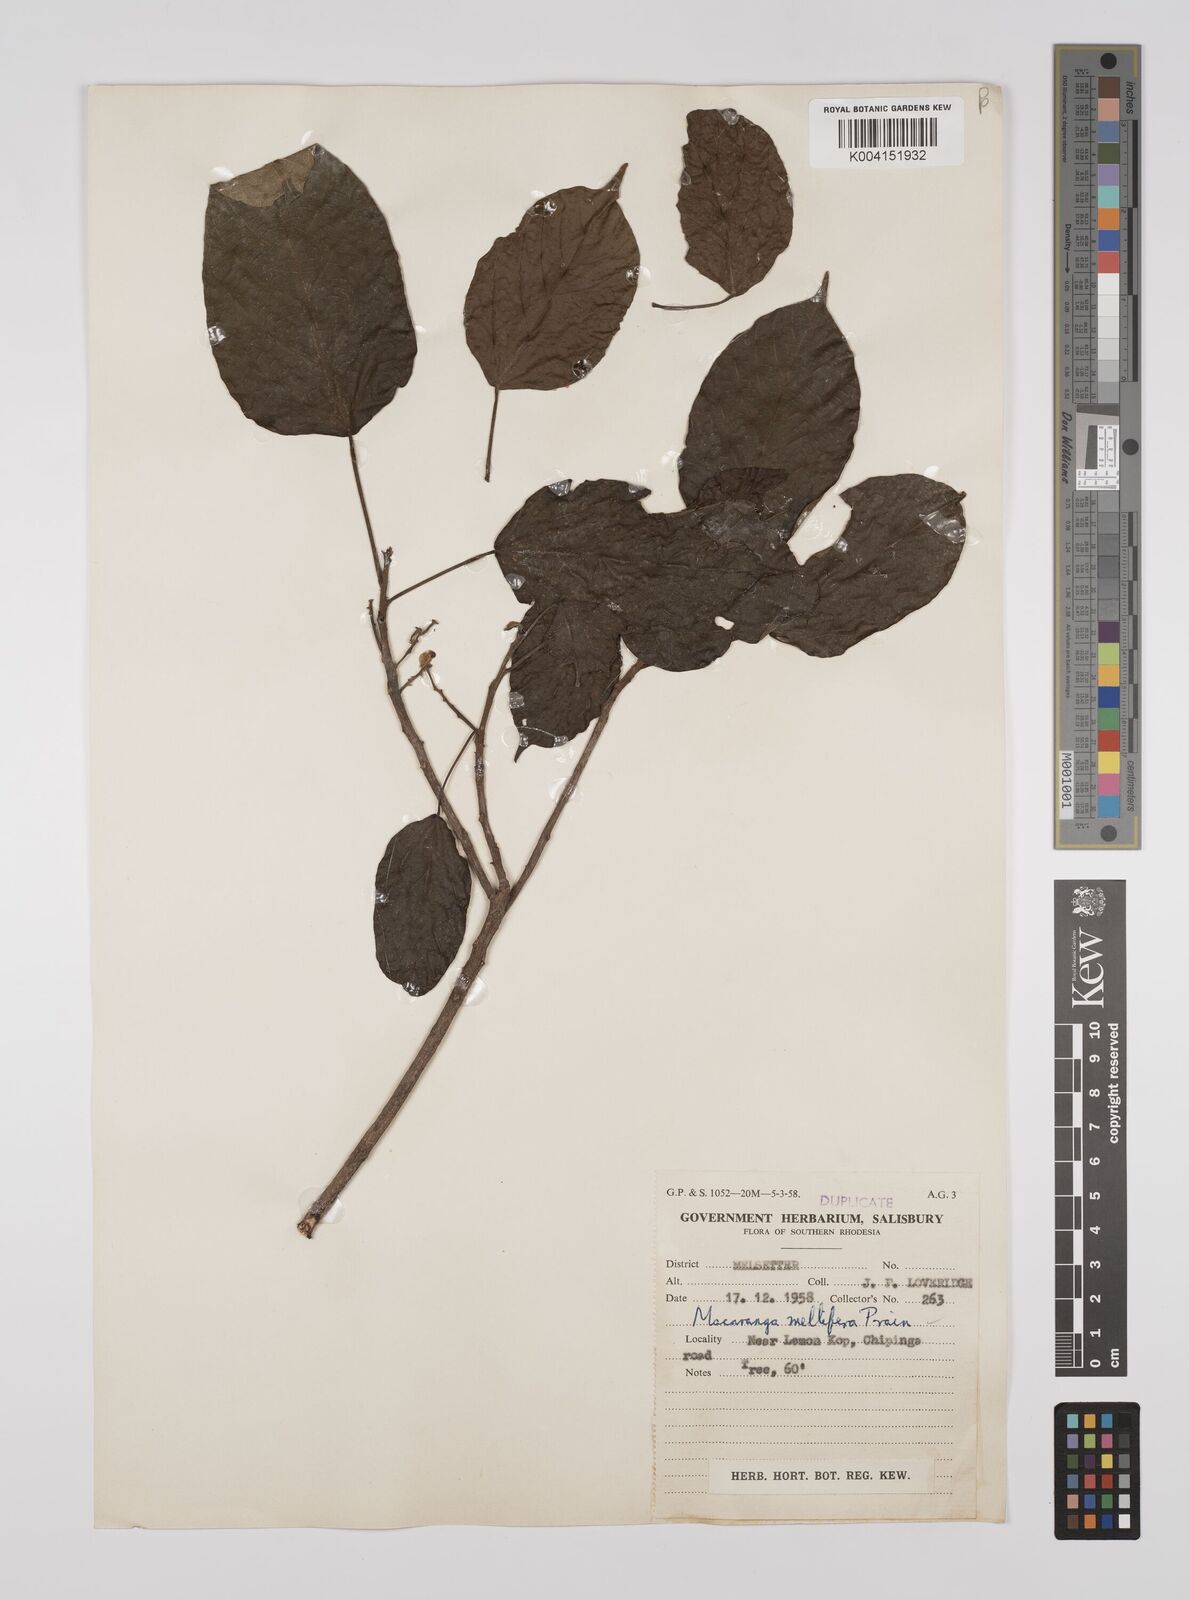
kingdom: Plantae
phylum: Tracheophyta
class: Magnoliopsida
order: Malpighiales
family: Euphorbiaceae
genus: Macaranga
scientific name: Macaranga mellifera
